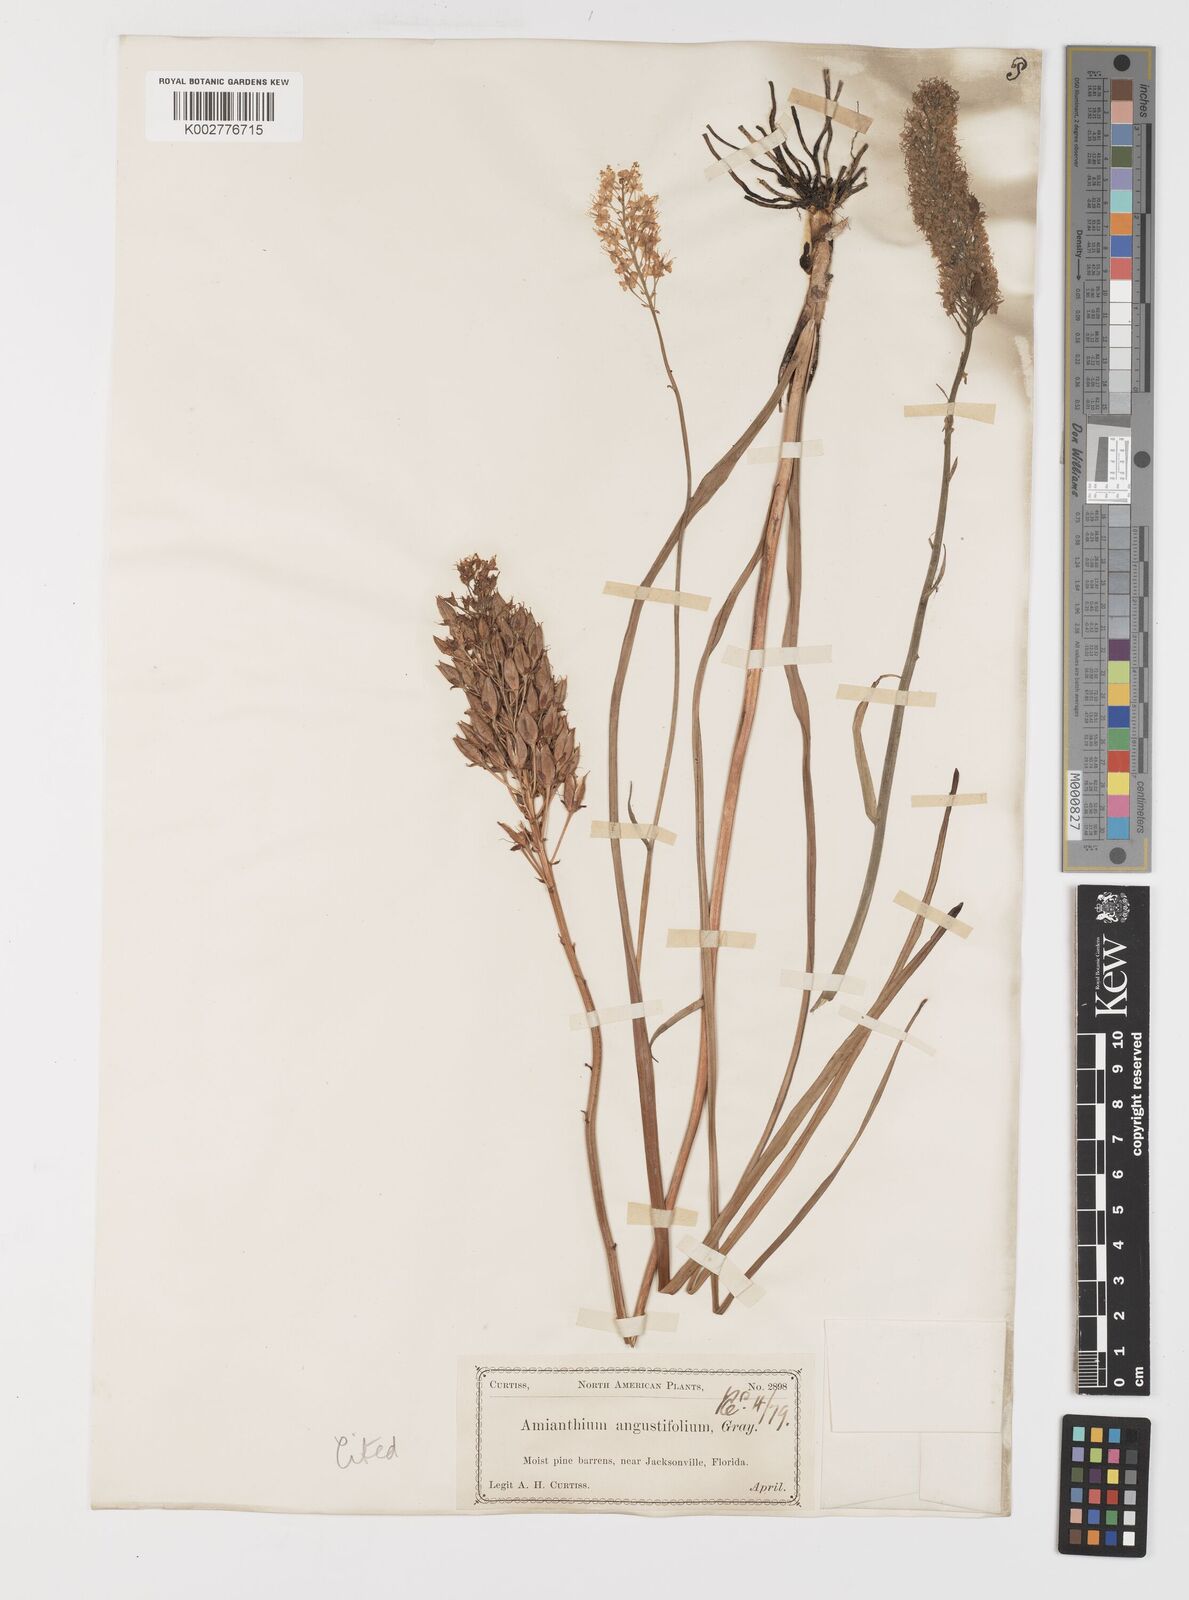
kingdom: Plantae
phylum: Tracheophyta
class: Liliopsida
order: Liliales
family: Melanthiaceae
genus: Stenanthium
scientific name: Stenanthium densum
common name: Crow-poison
